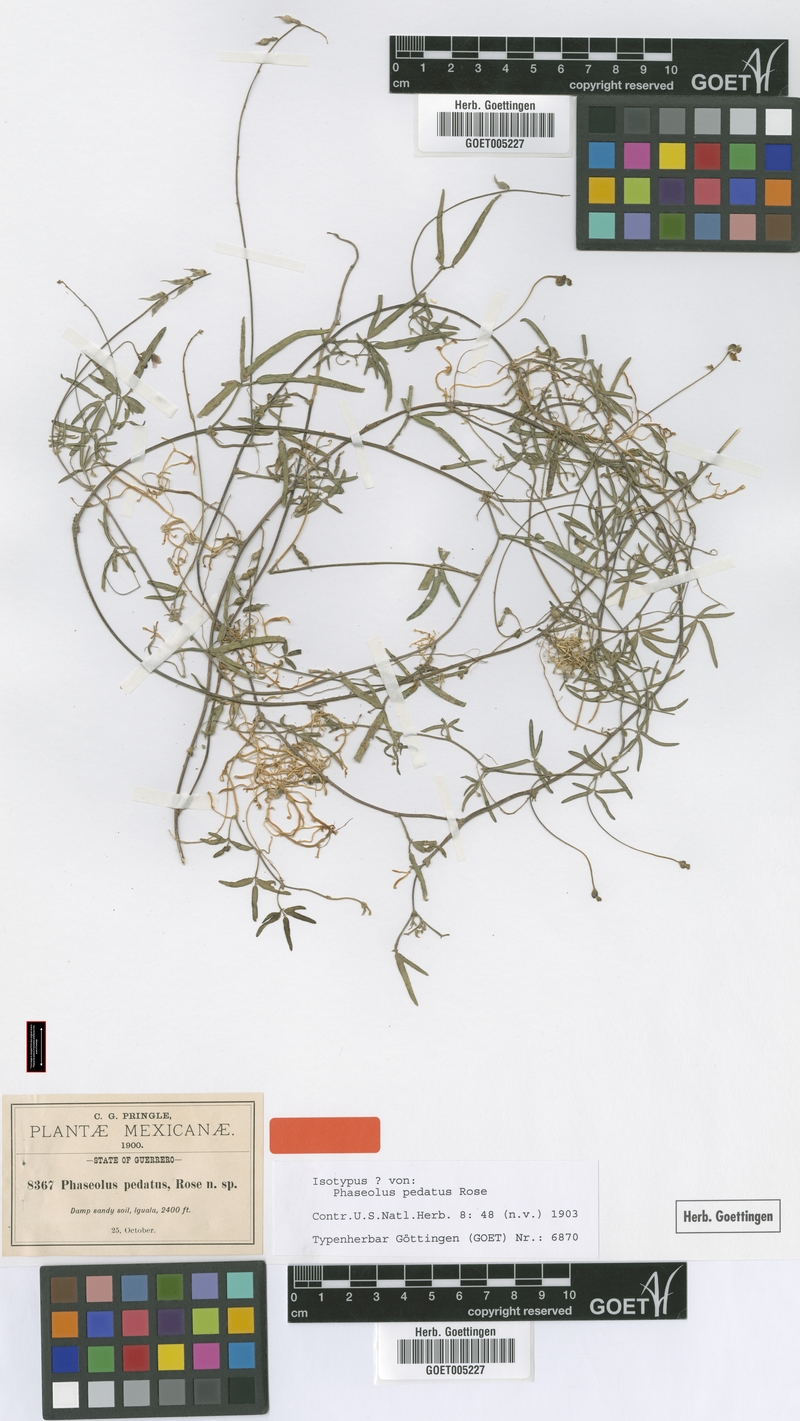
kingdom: Plantae
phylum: Tracheophyta
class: Magnoliopsida
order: Fabales
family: Fabaceae
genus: Macroptilium
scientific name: Macroptilium pedatum
